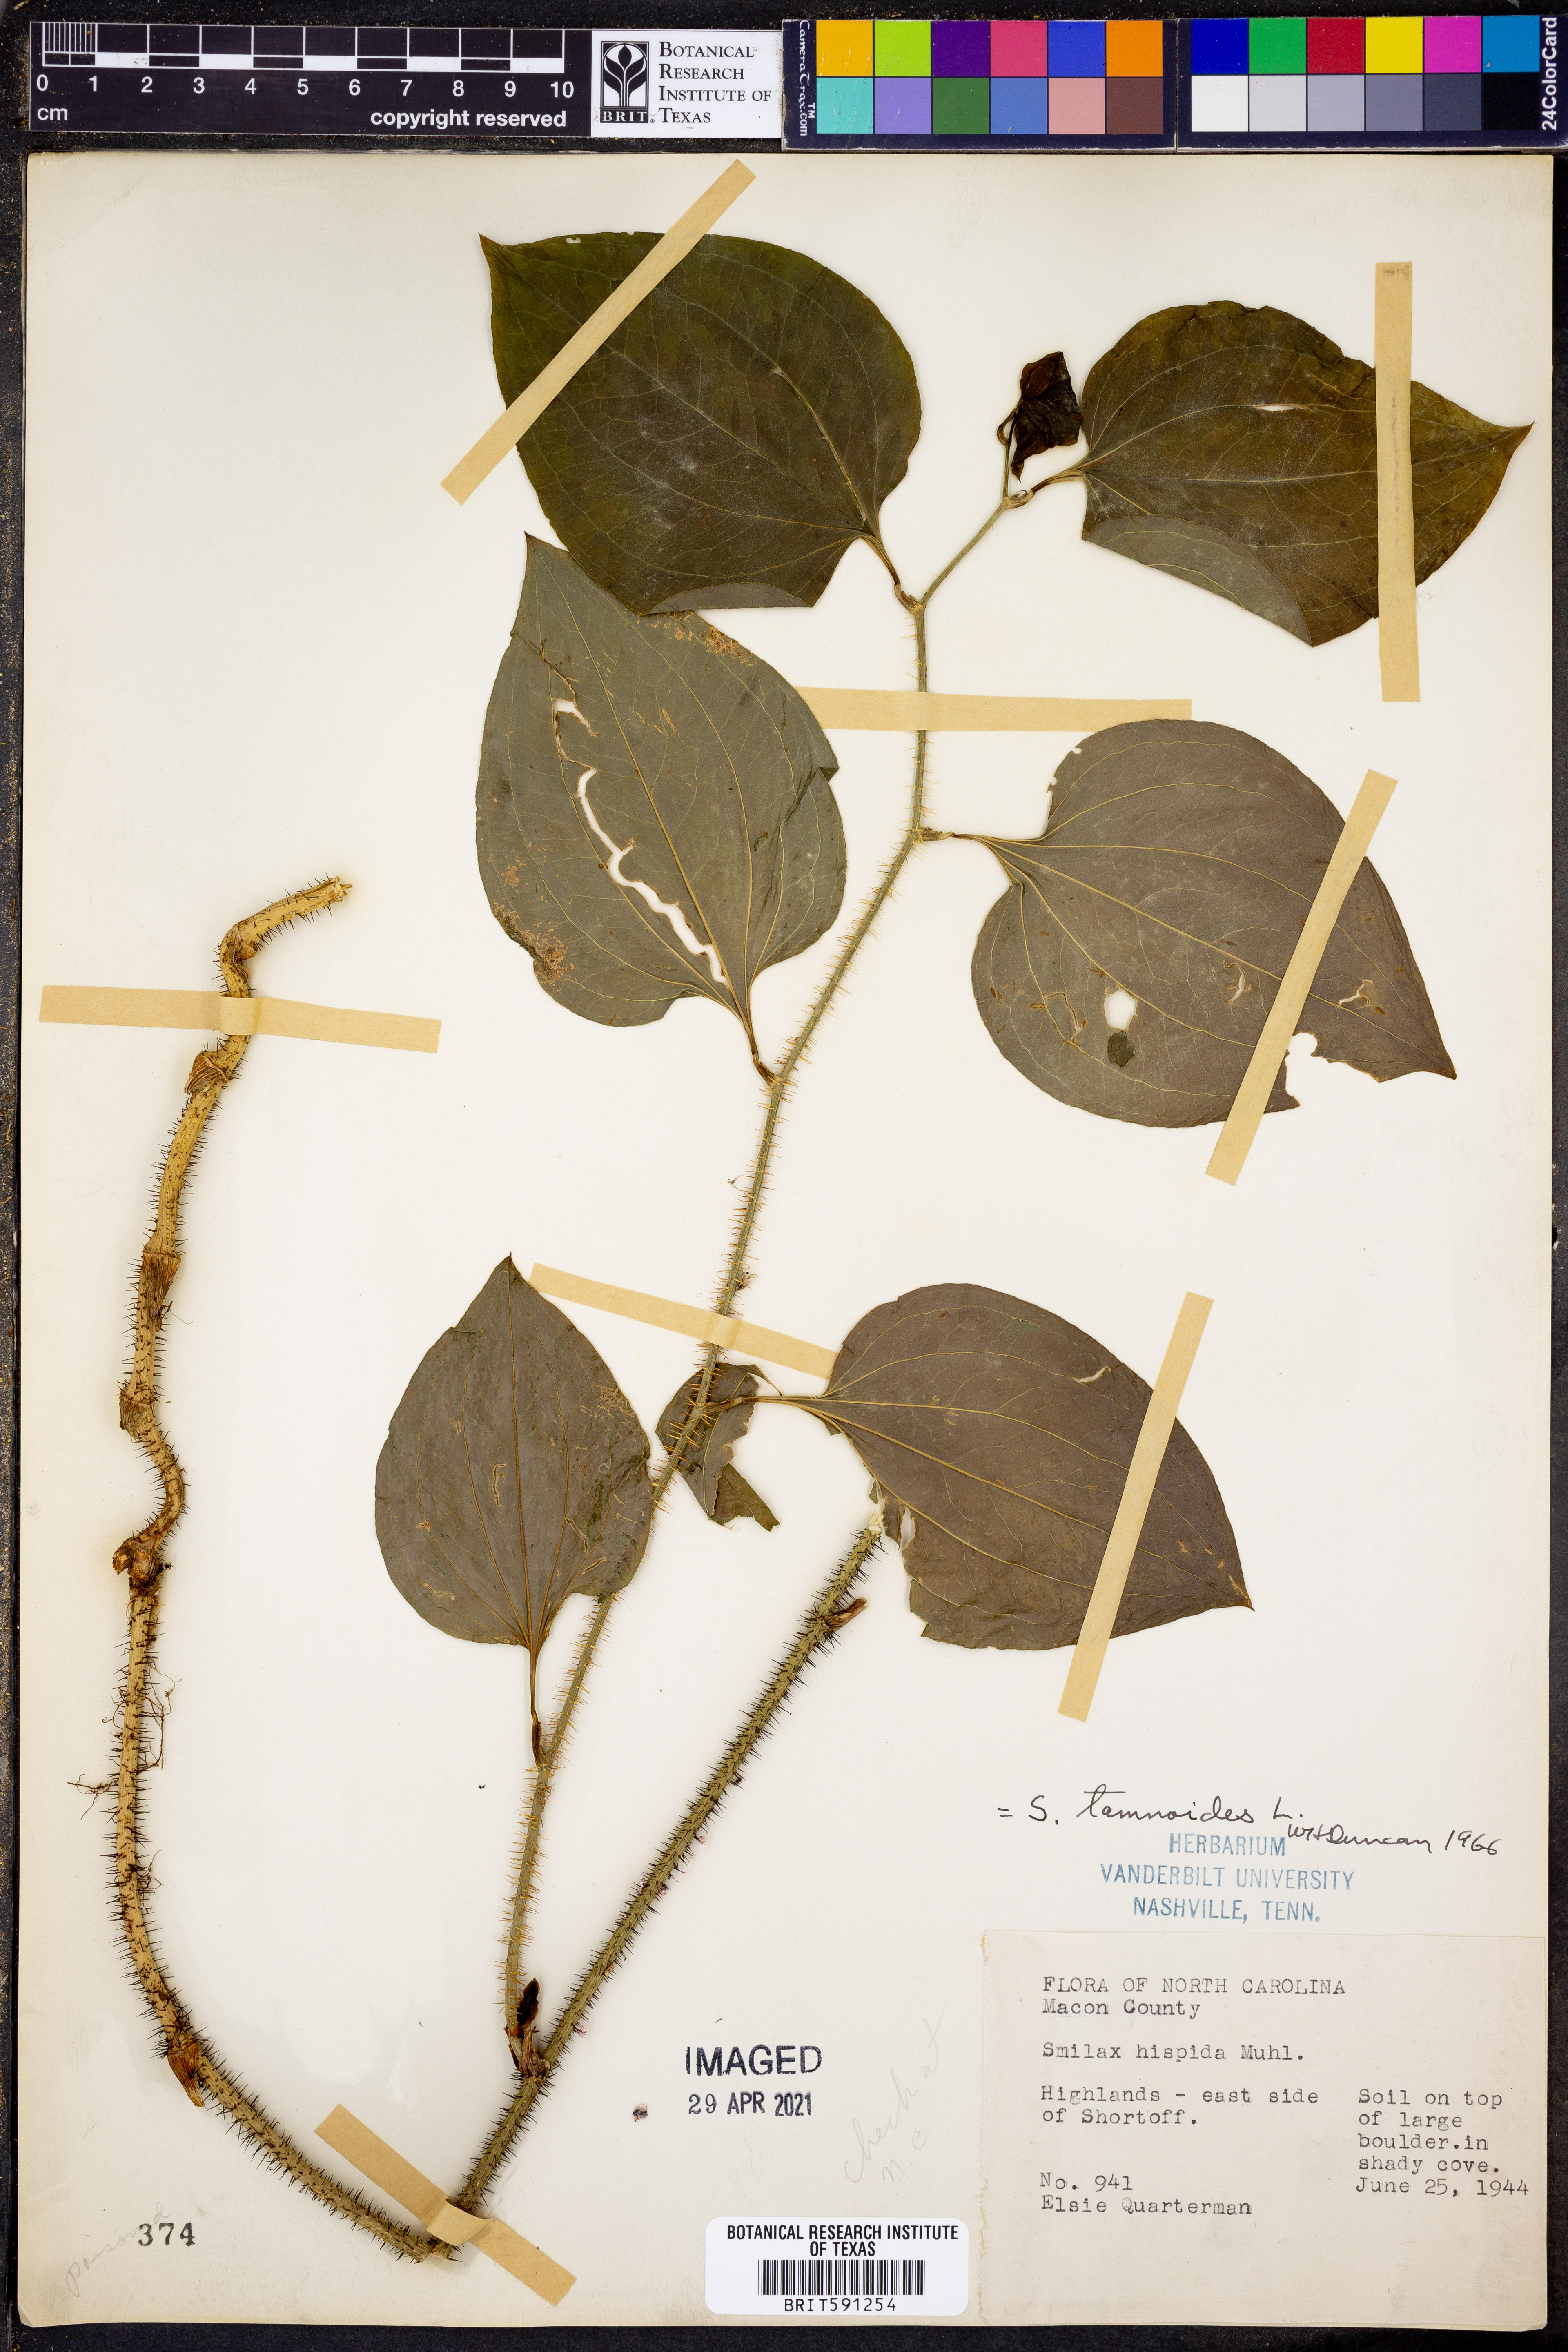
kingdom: Plantae
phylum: Tracheophyta
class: Liliopsida
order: Liliales
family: Smilacaceae
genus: Smilax
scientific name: Smilax tamnoides
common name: Hellfetter
